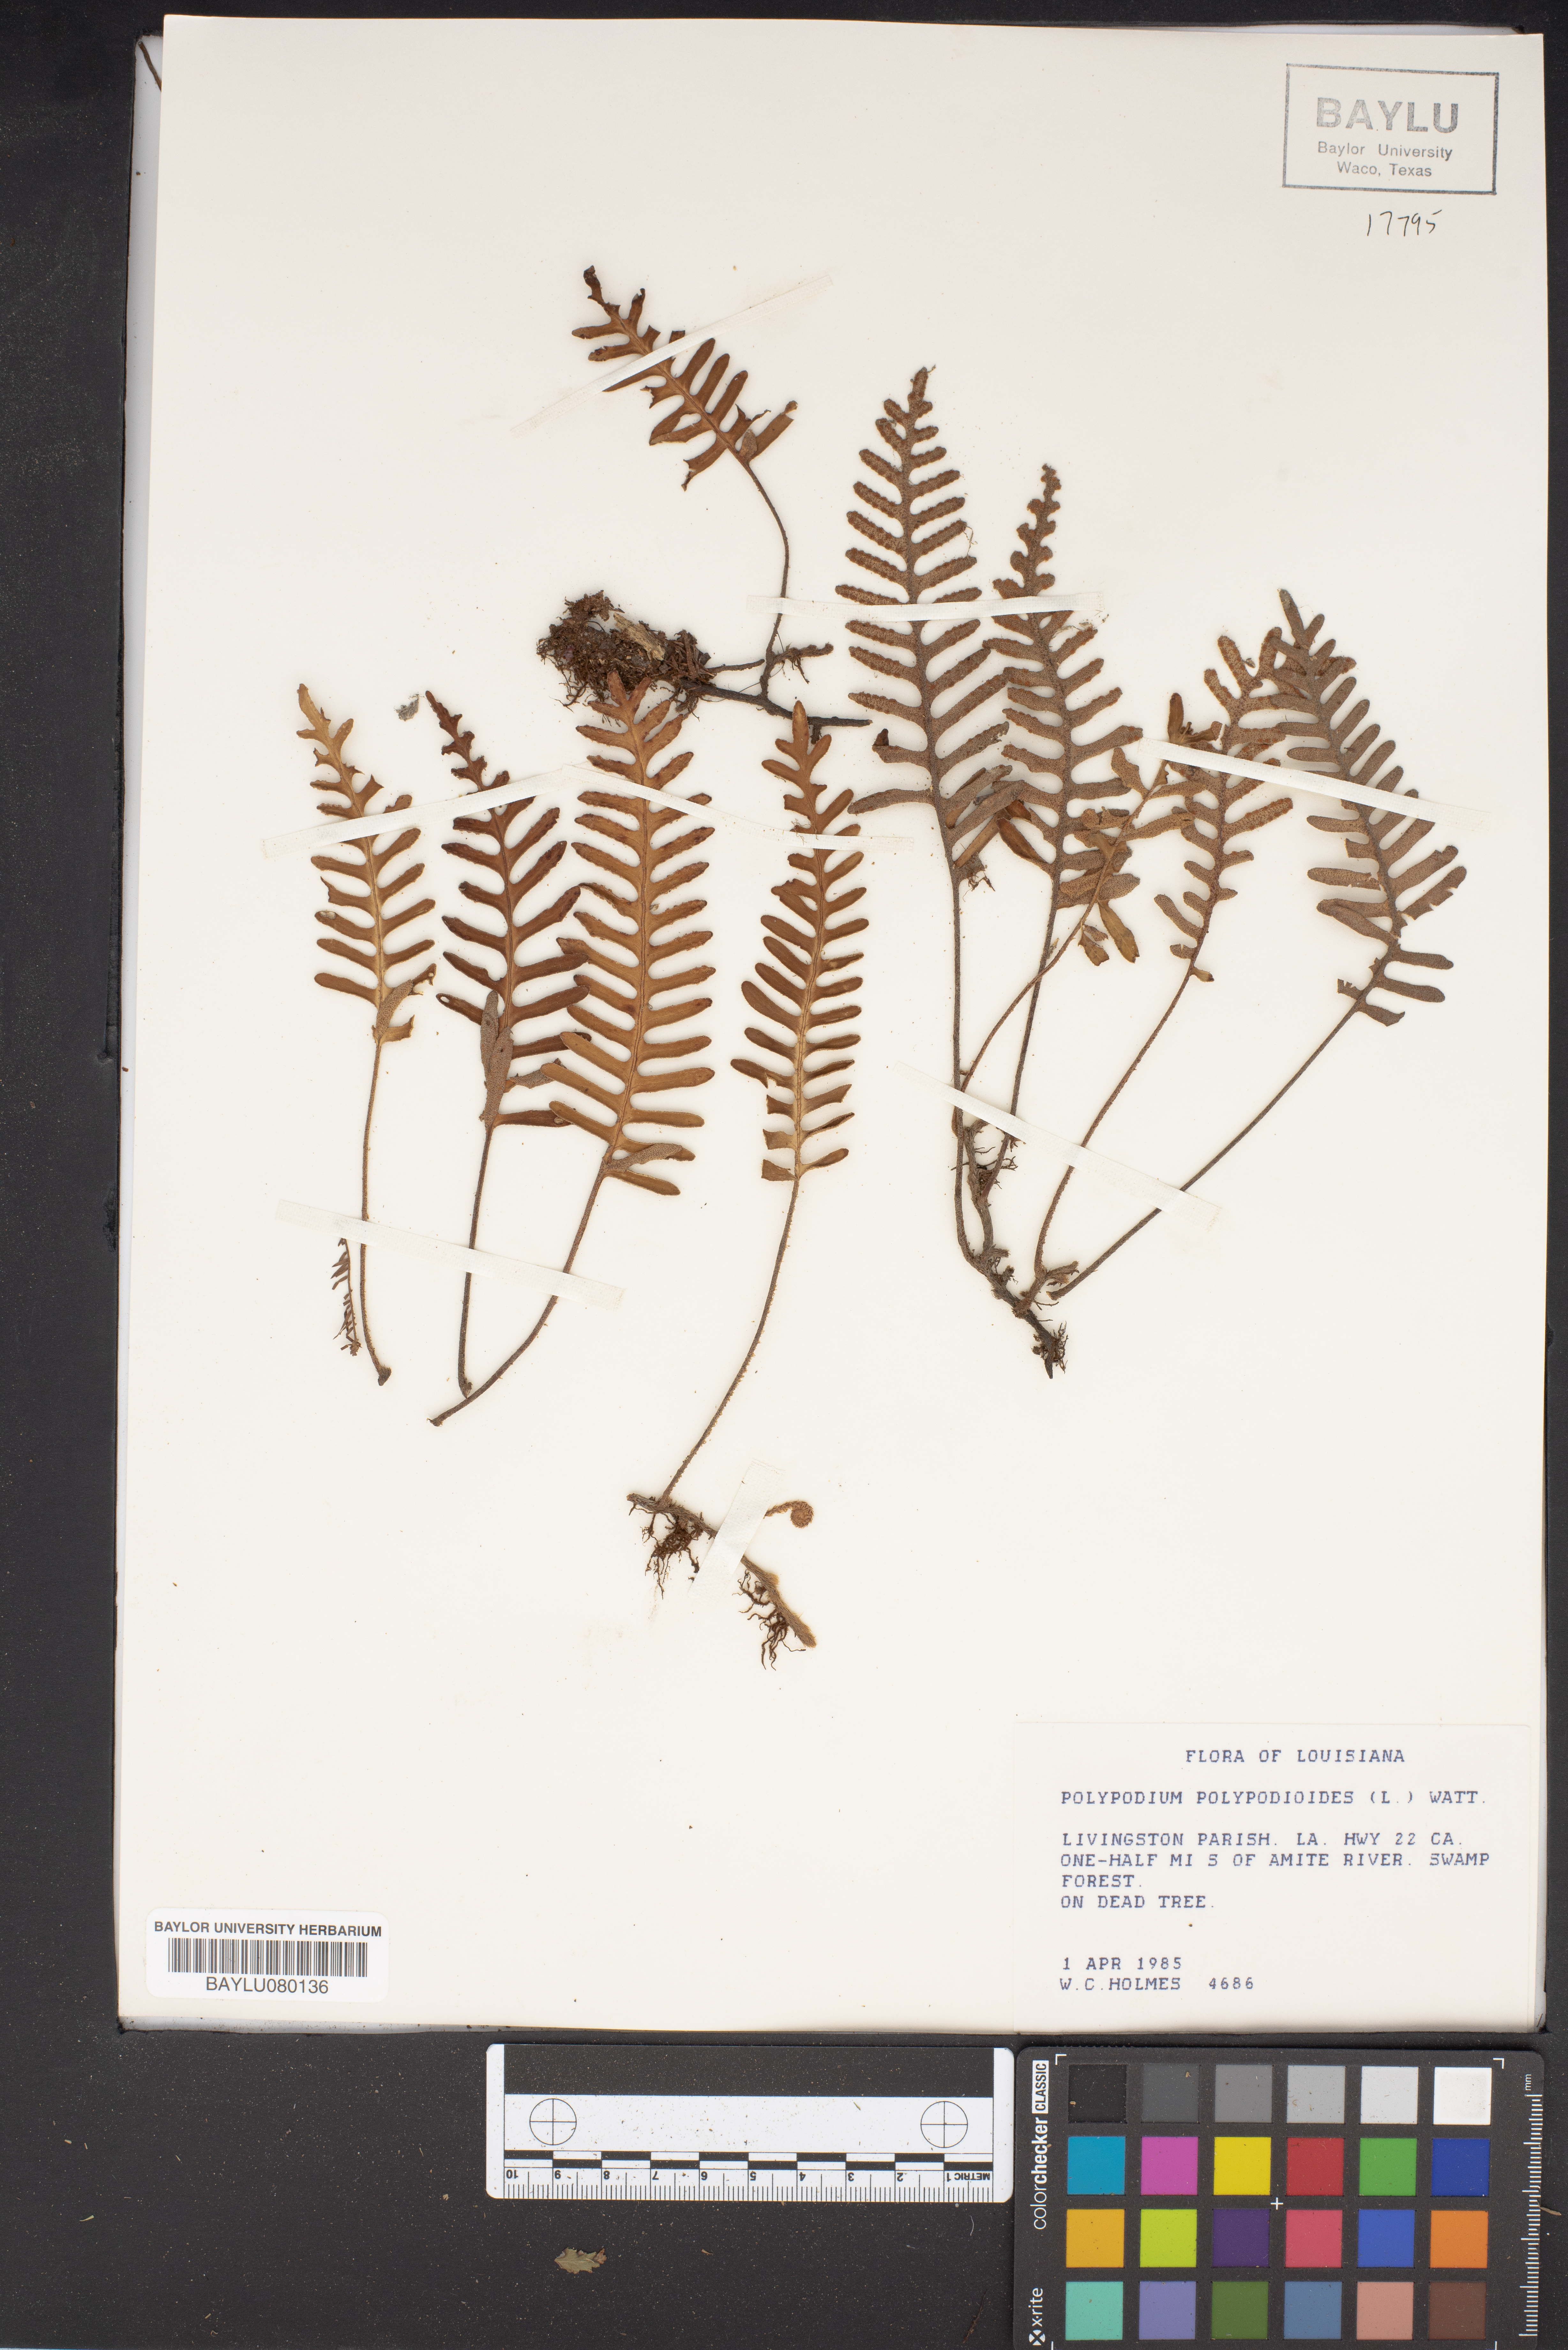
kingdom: Plantae
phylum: Tracheophyta
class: Polypodiopsida
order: Polypodiales
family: Polypodiaceae
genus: Pleopeltis
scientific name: Pleopeltis polypodioides
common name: Resurrection fern
